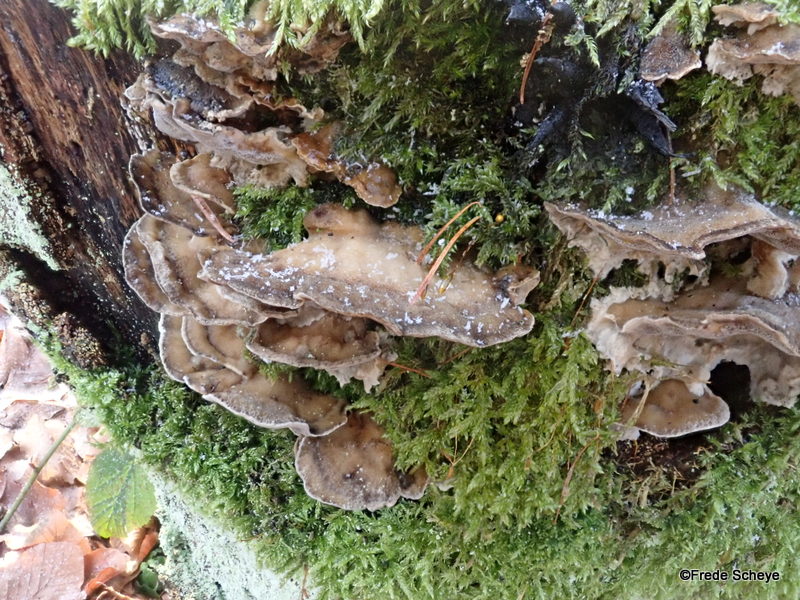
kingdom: Fungi
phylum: Basidiomycota
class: Agaricomycetes
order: Polyporales
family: Phanerochaetaceae
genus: Bjerkandera
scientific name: Bjerkandera adusta
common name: sveden sodporesvamp
